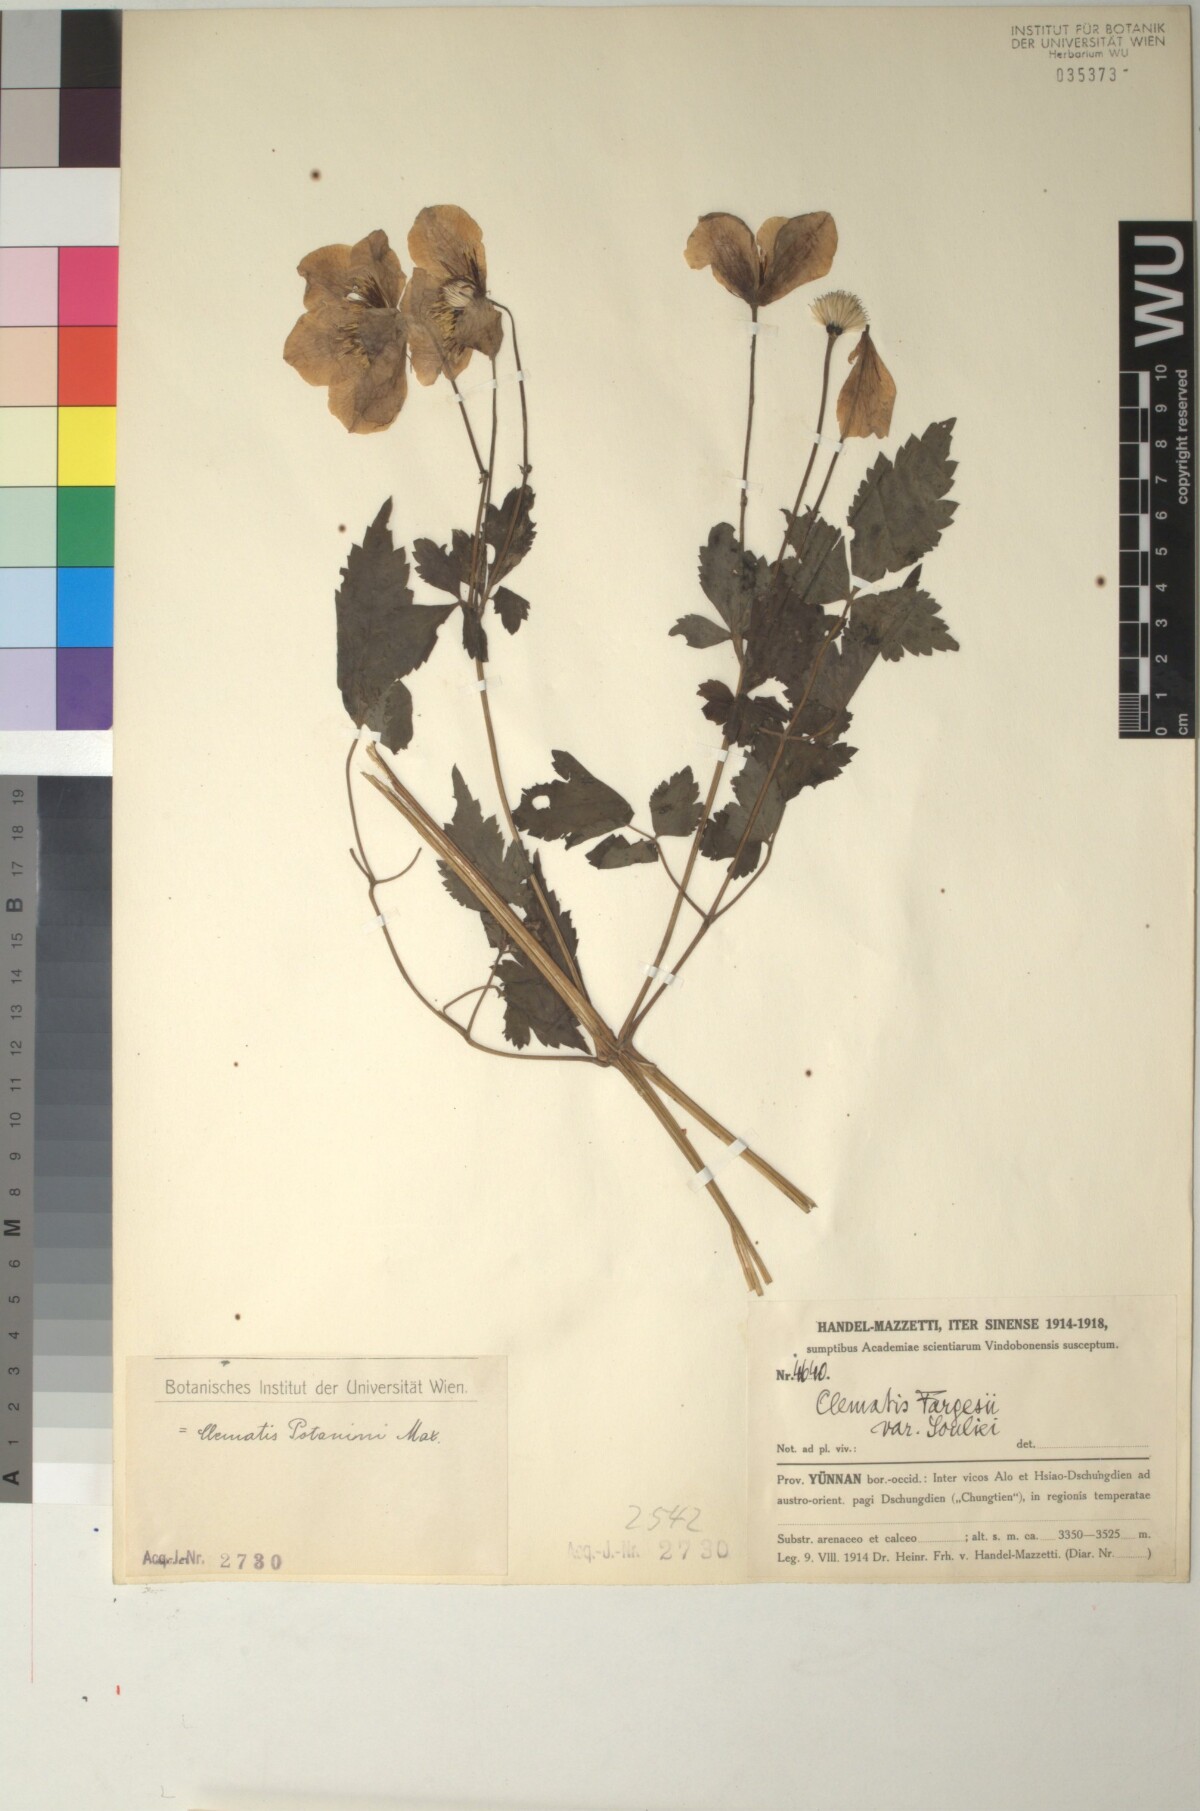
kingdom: Plantae
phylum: Tracheophyta
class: Magnoliopsida
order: Ranunculales
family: Ranunculaceae
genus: Clematis
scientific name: Clematis potaninii
